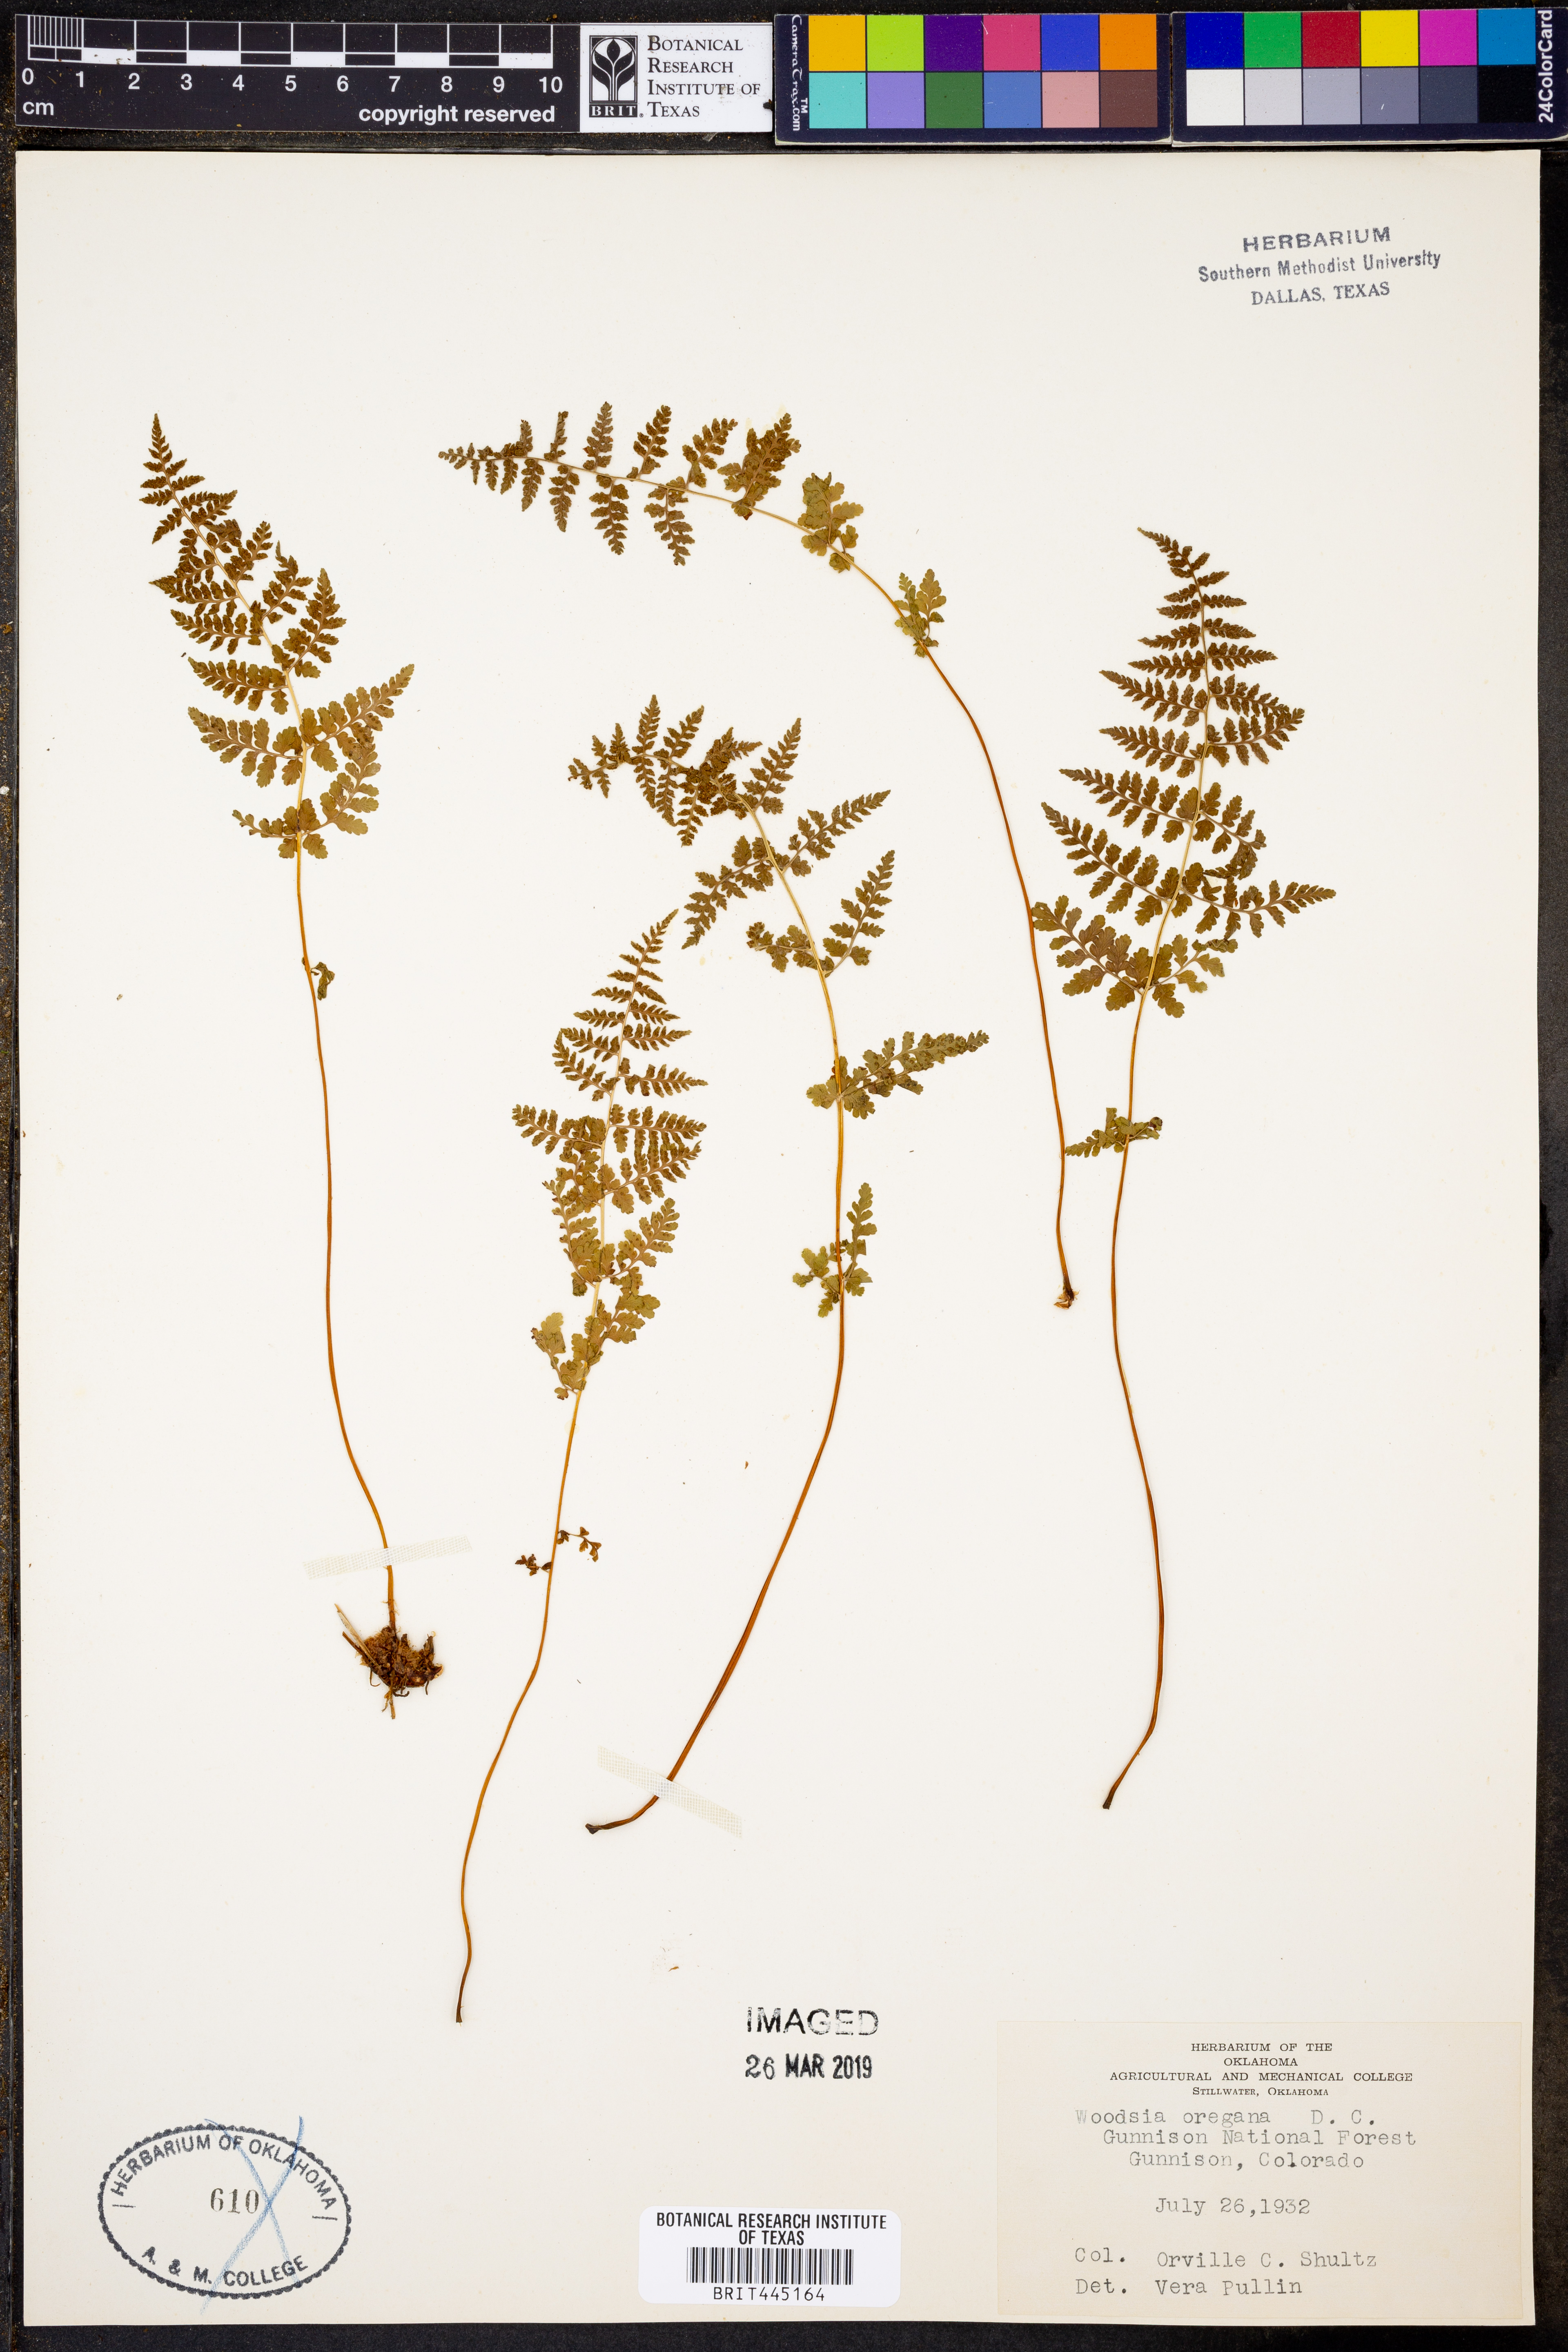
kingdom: Plantae
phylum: Tracheophyta
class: Polypodiopsida
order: Polypodiales
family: Woodsiaceae
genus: Physematium
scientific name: Physematium oreganum
